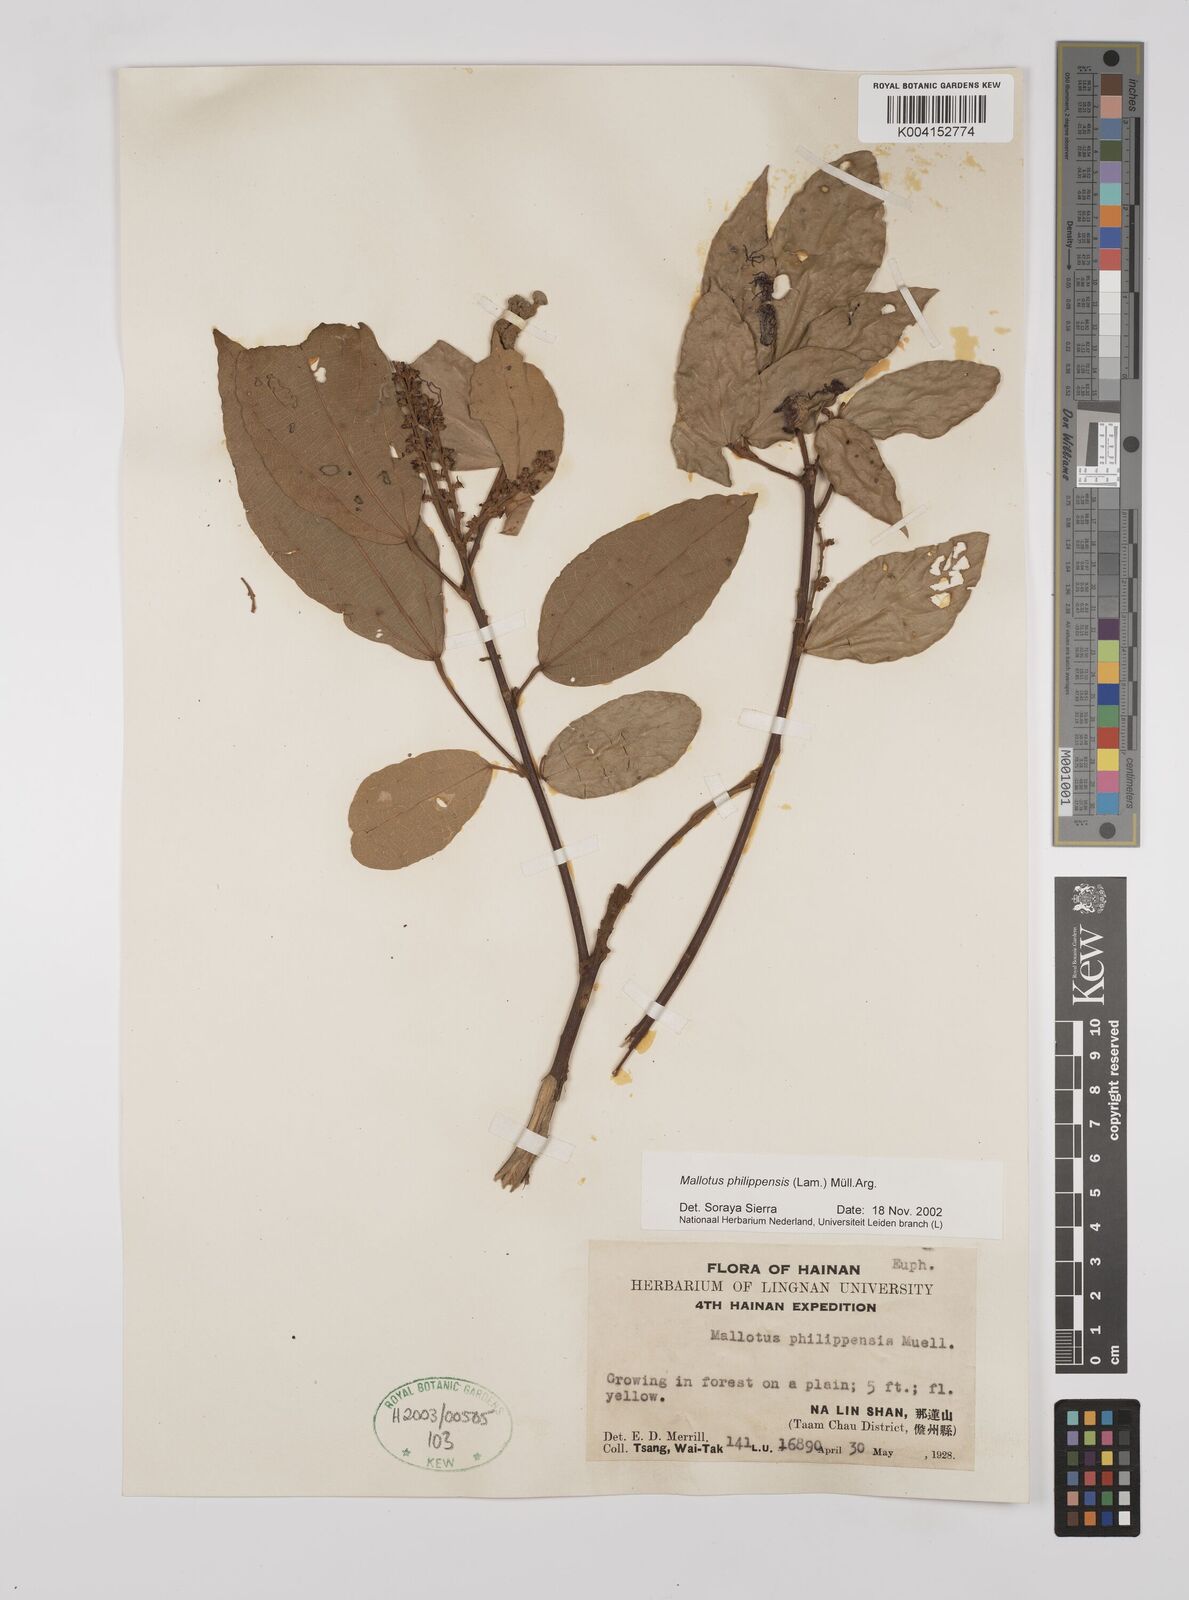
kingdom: Plantae
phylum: Tracheophyta
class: Magnoliopsida
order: Malpighiales
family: Euphorbiaceae
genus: Mallotus
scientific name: Mallotus philippensis
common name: Kamala tree
